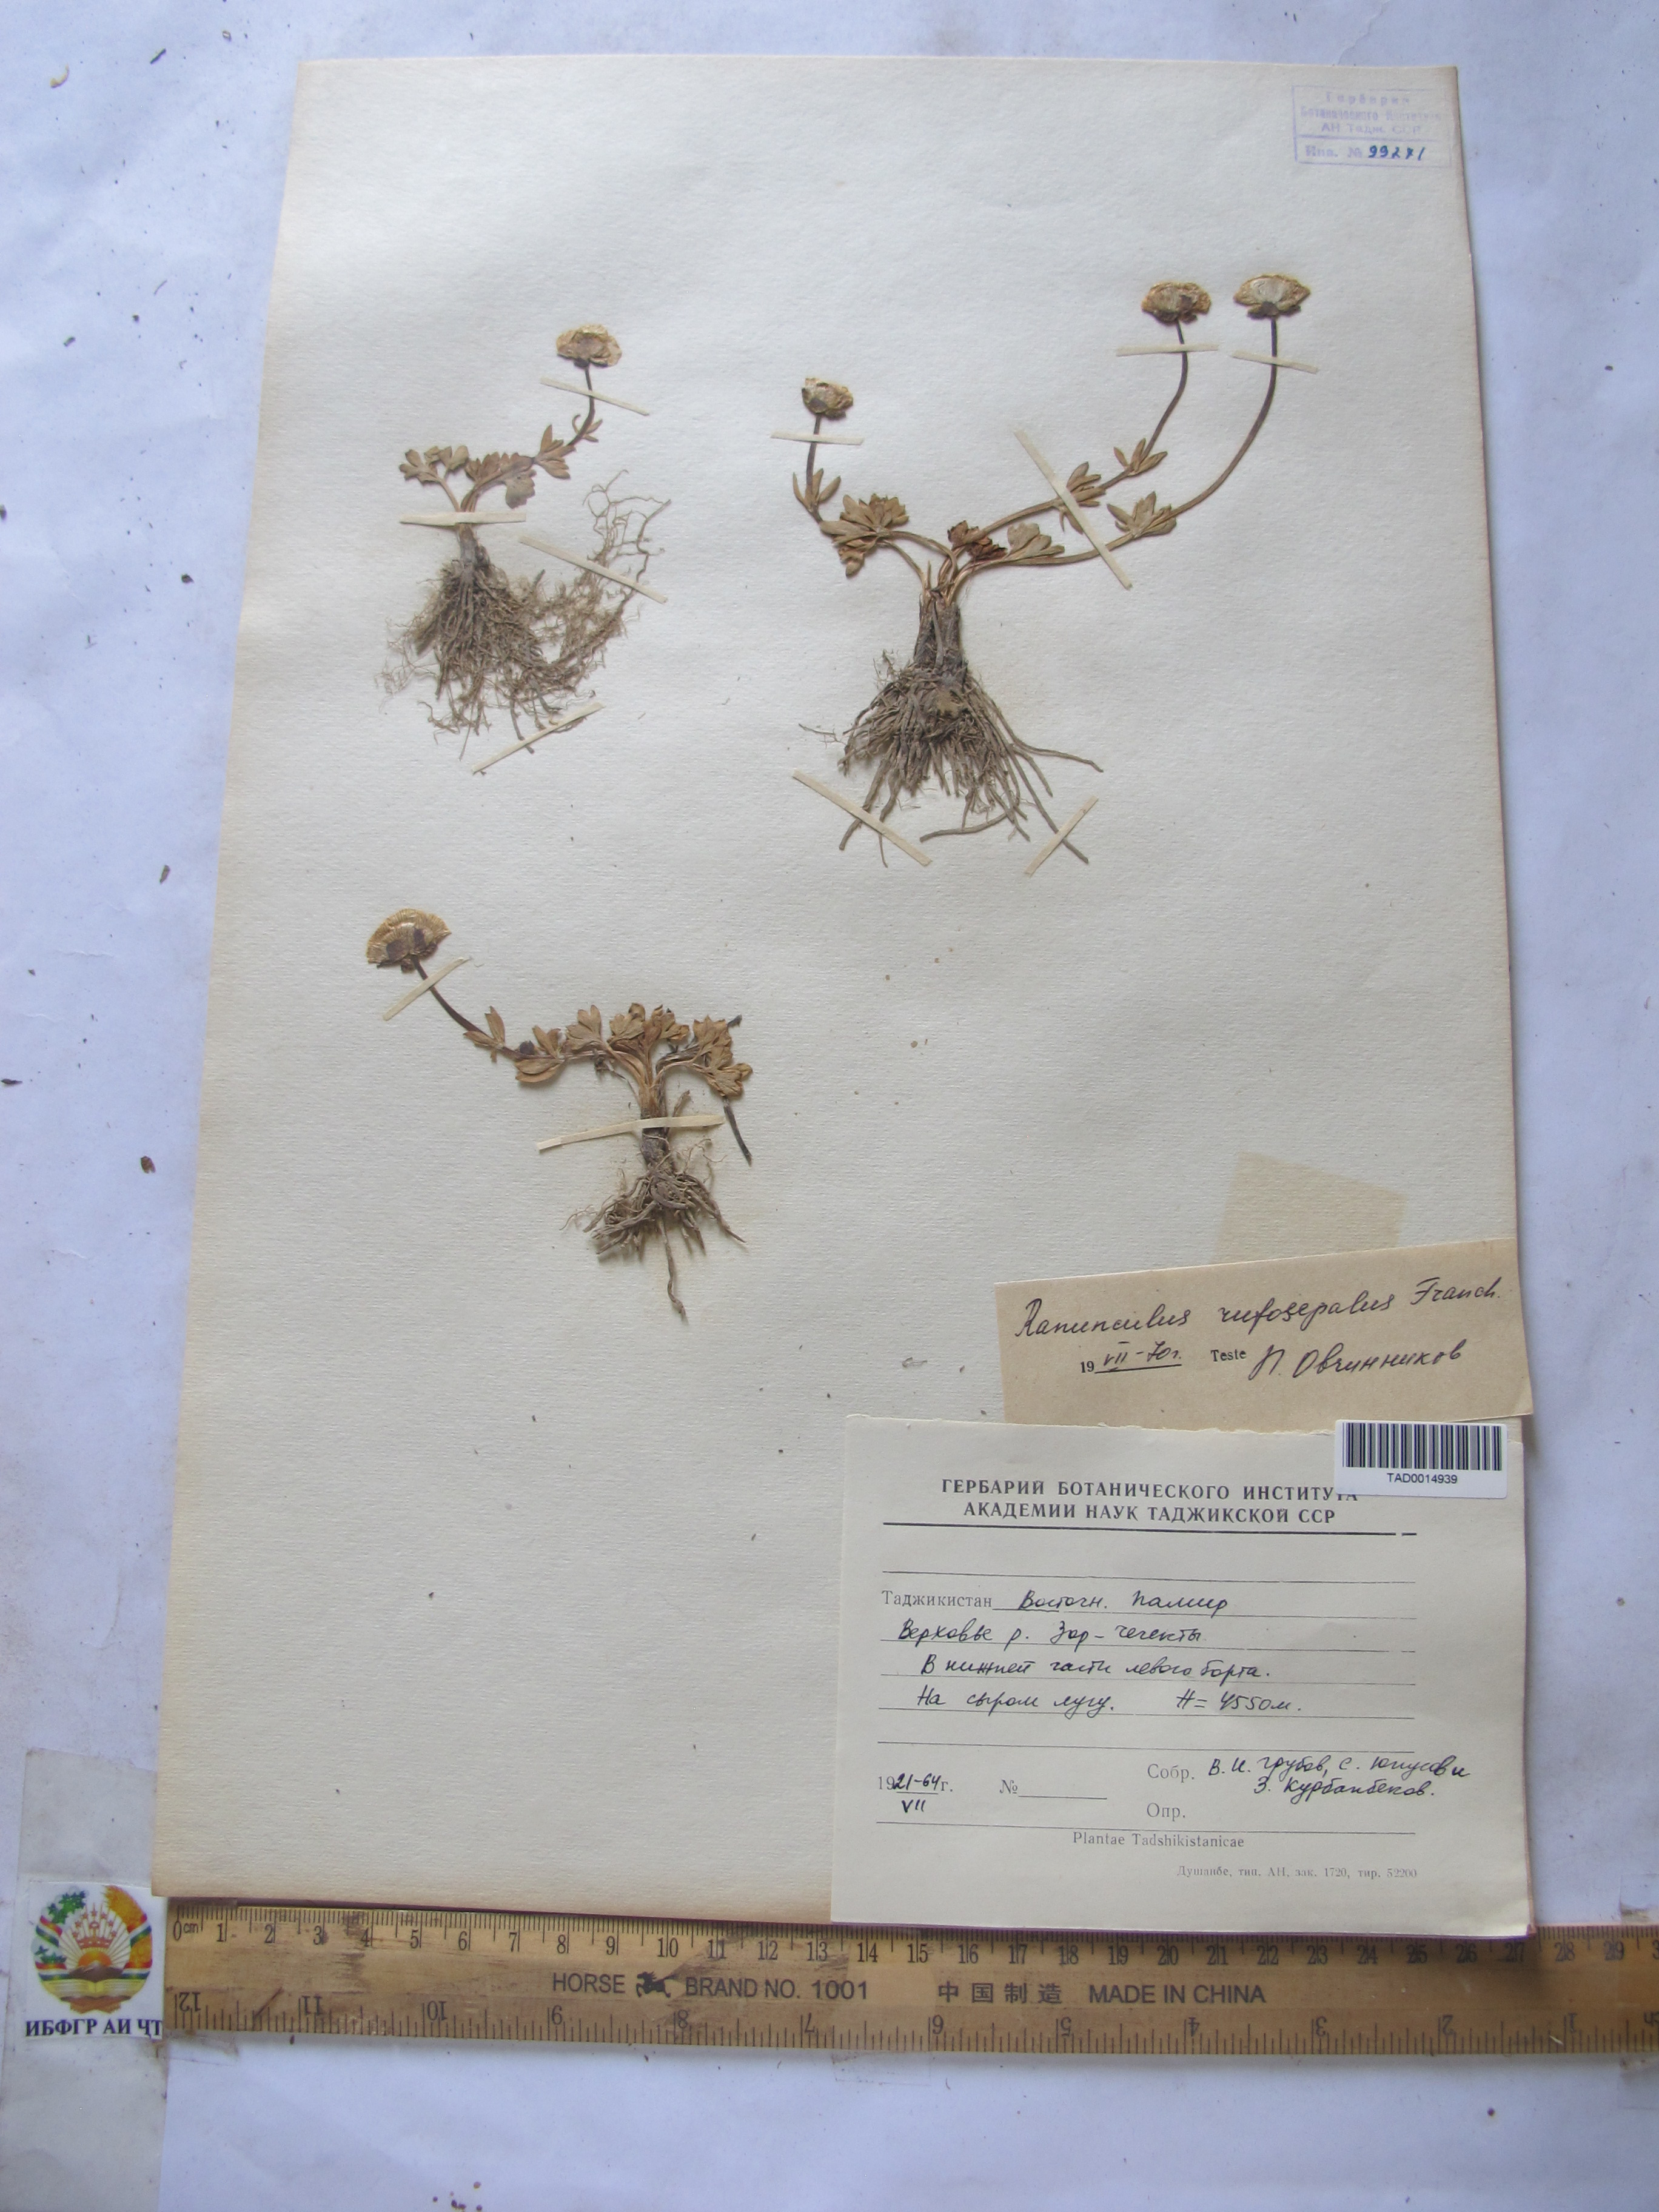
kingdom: Plantae
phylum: Tracheophyta
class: Magnoliopsida
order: Ranunculales
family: Ranunculaceae
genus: Ranunculus
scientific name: Ranunculus rufosepalus
